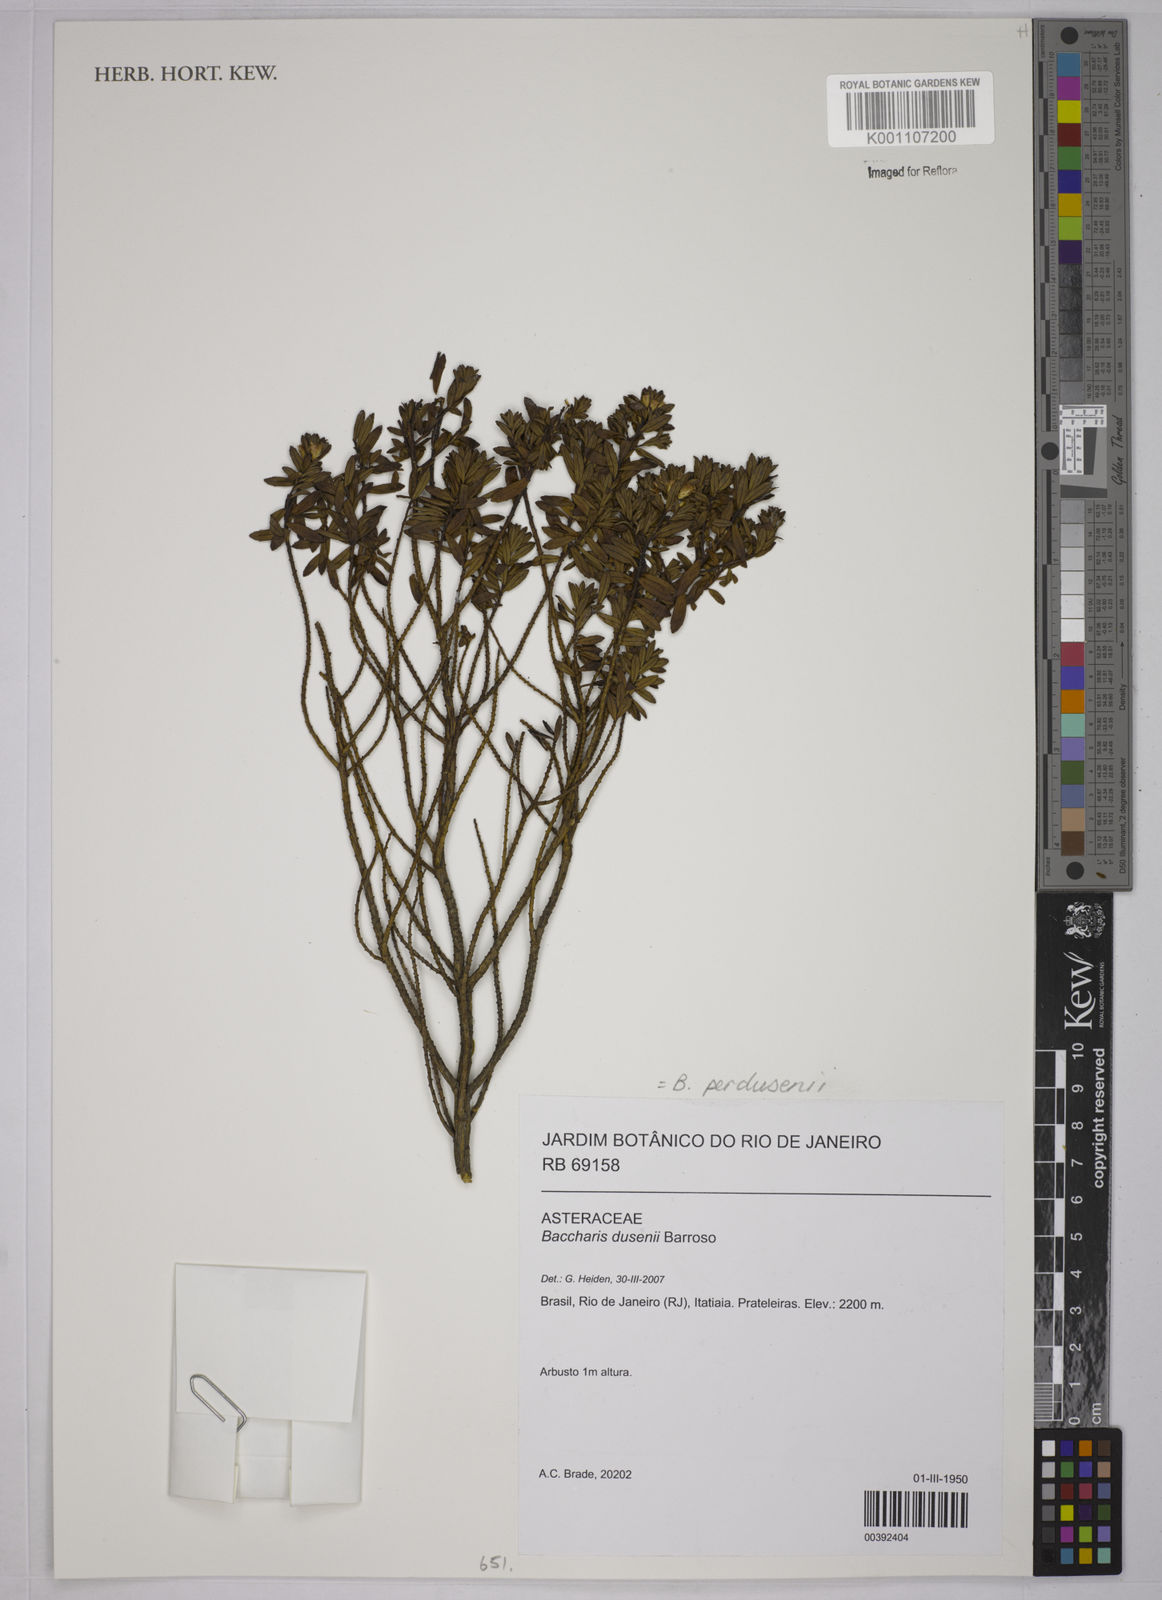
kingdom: Plantae
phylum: Tracheophyta
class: Magnoliopsida
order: Asterales
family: Asteraceae
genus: Baccharis
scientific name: Baccharis parvidentata
